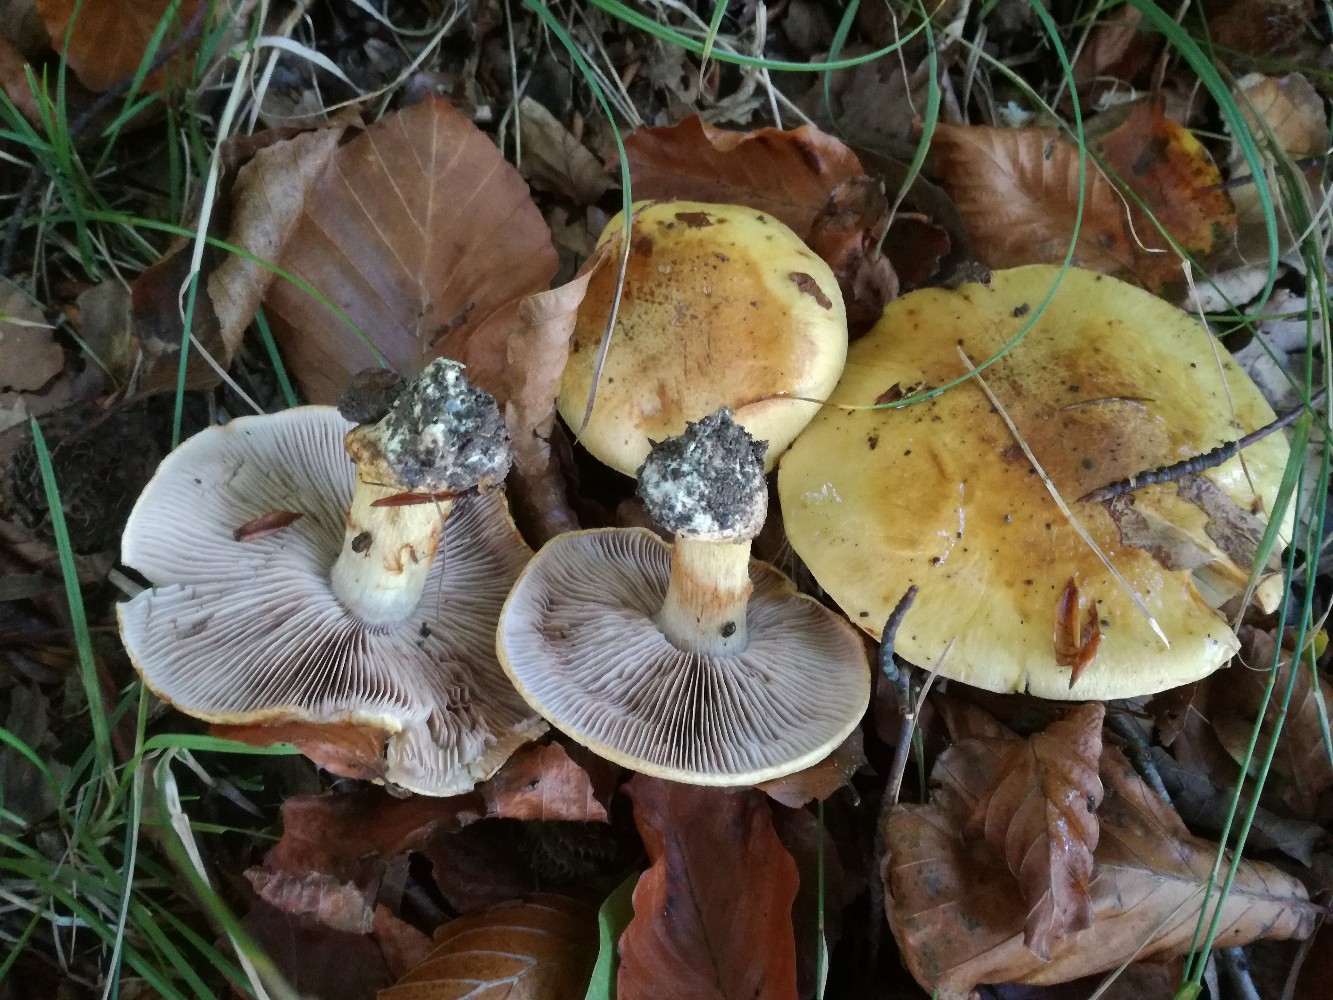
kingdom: Fungi
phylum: Basidiomycota
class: Agaricomycetes
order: Agaricales
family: Cortinariaceae
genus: Calonarius
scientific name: Calonarius callochrous
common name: lillabladet slørhat
